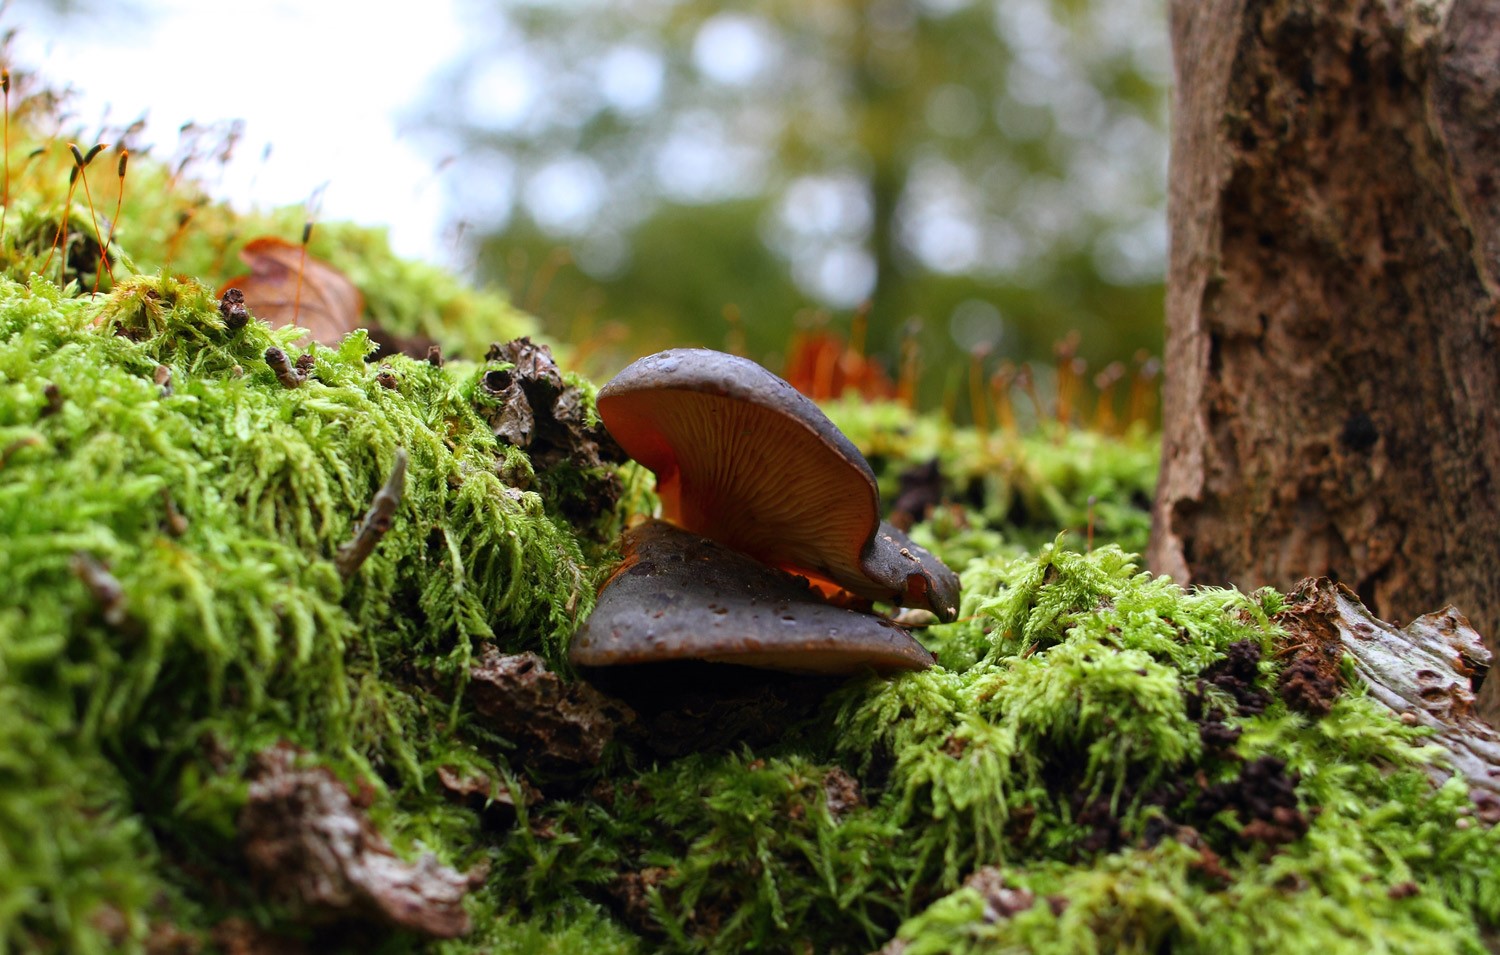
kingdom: Fungi
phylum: Basidiomycota
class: Agaricomycetes
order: Agaricales
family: Sarcomyxaceae
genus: Sarcomyxa
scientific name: Sarcomyxa serotina
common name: gummihat
